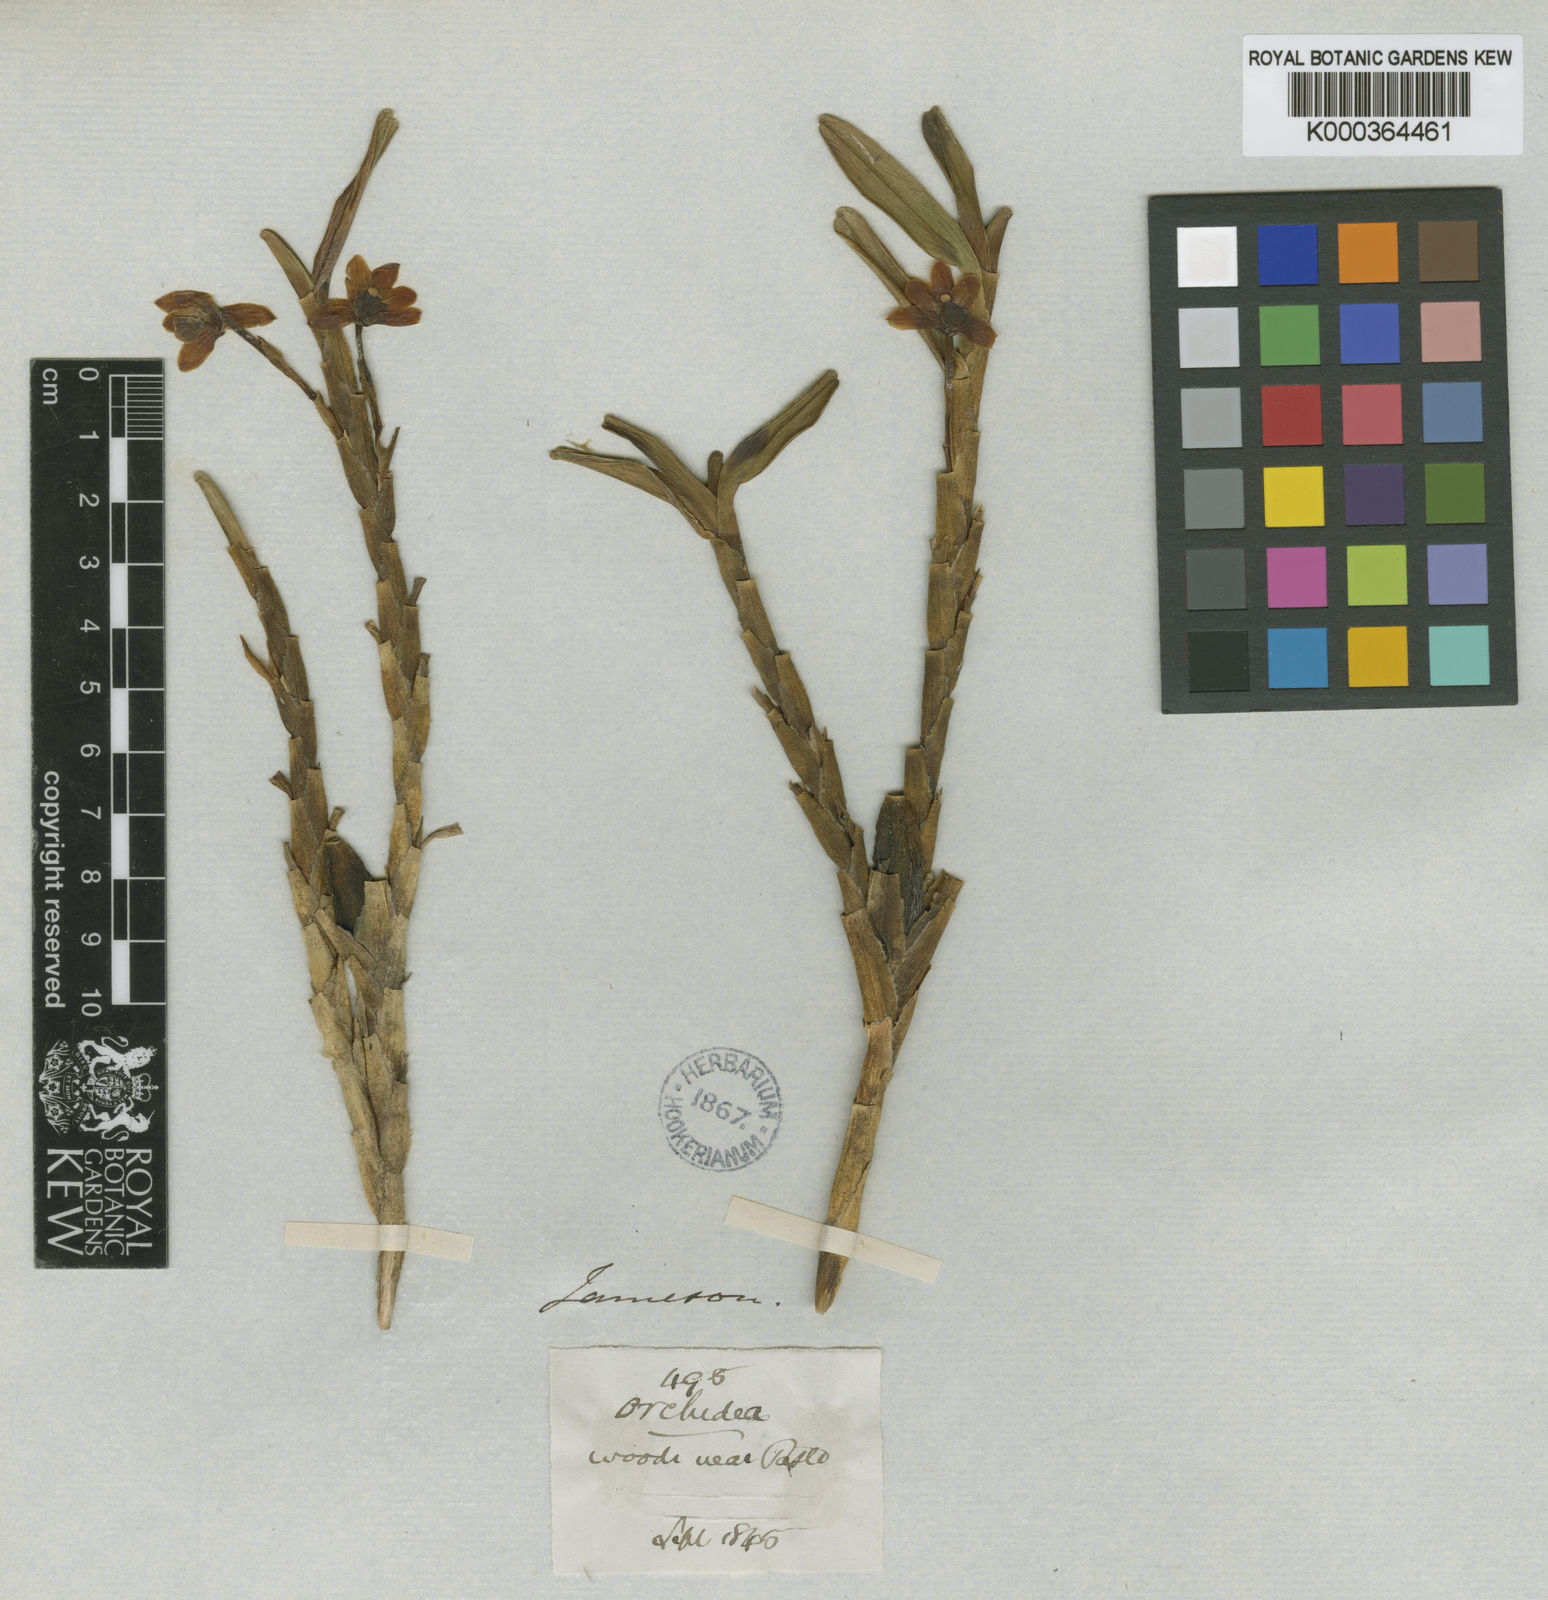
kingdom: Plantae
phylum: Tracheophyta
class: Liliopsida
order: Asparagales
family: Orchidaceae
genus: Maxillaria
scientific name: Maxillaria pastensis
